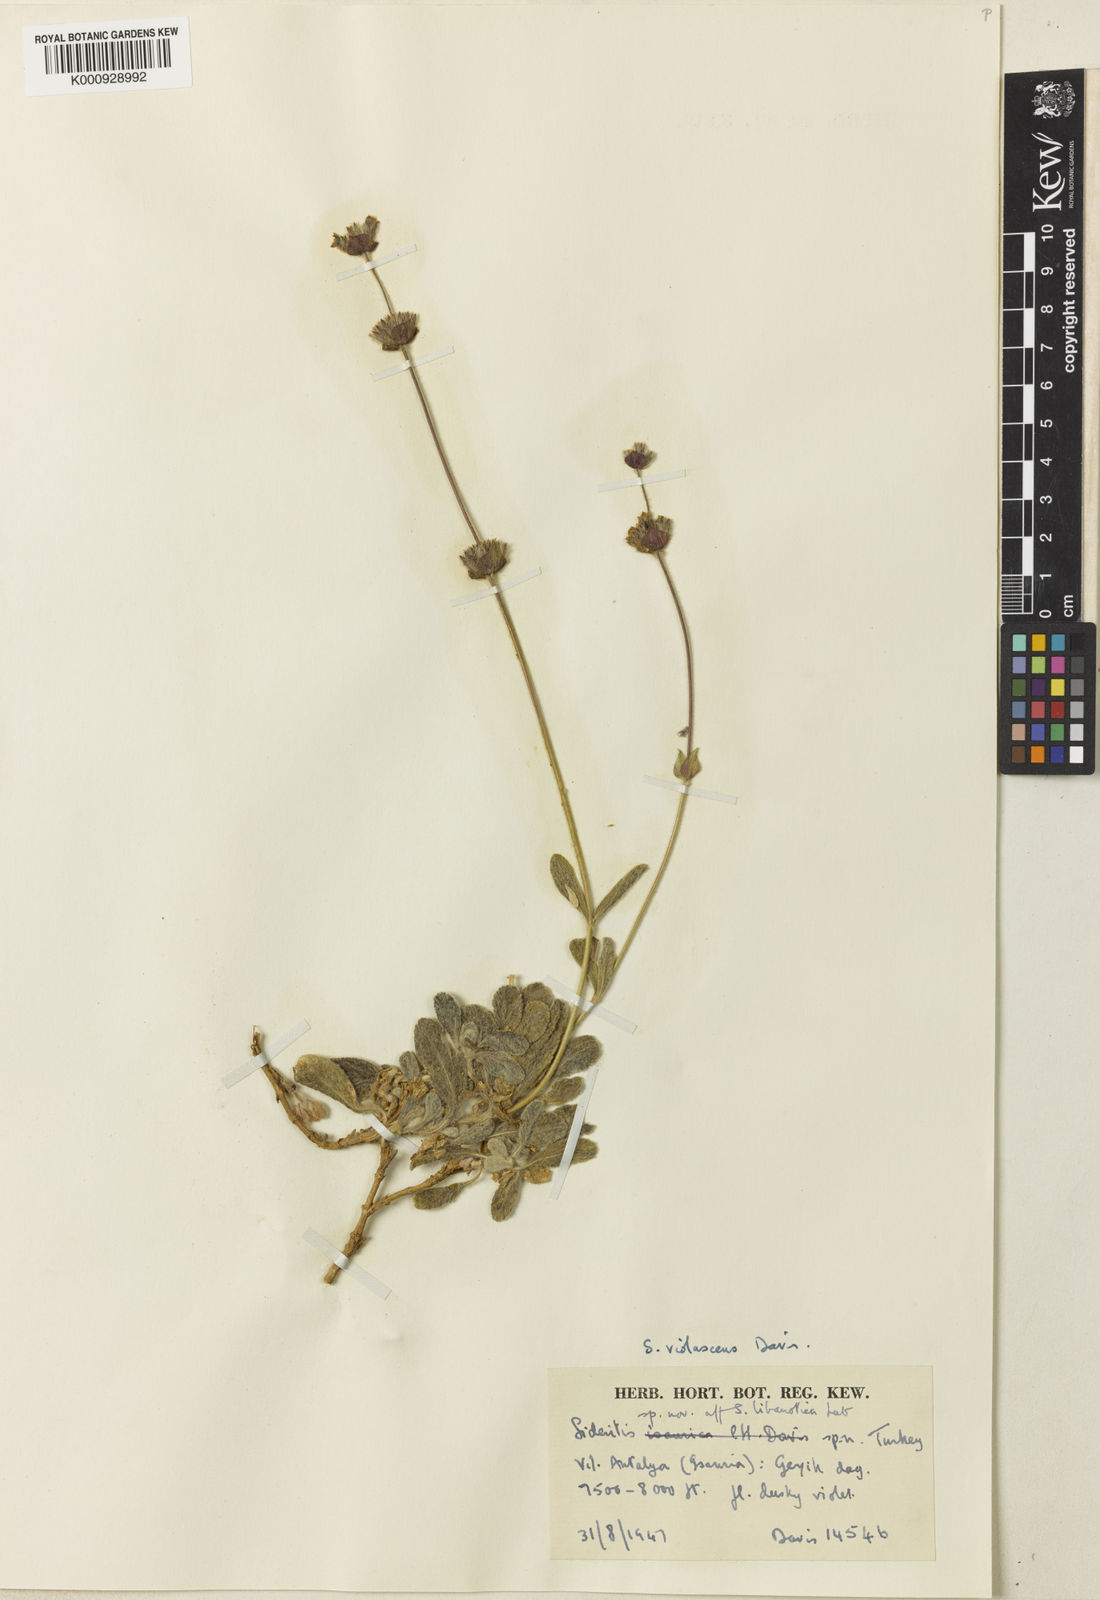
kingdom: Plantae
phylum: Tracheophyta
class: Magnoliopsida
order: Lamiales
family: Lamiaceae
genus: Sideritis
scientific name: Sideritis libanotica
